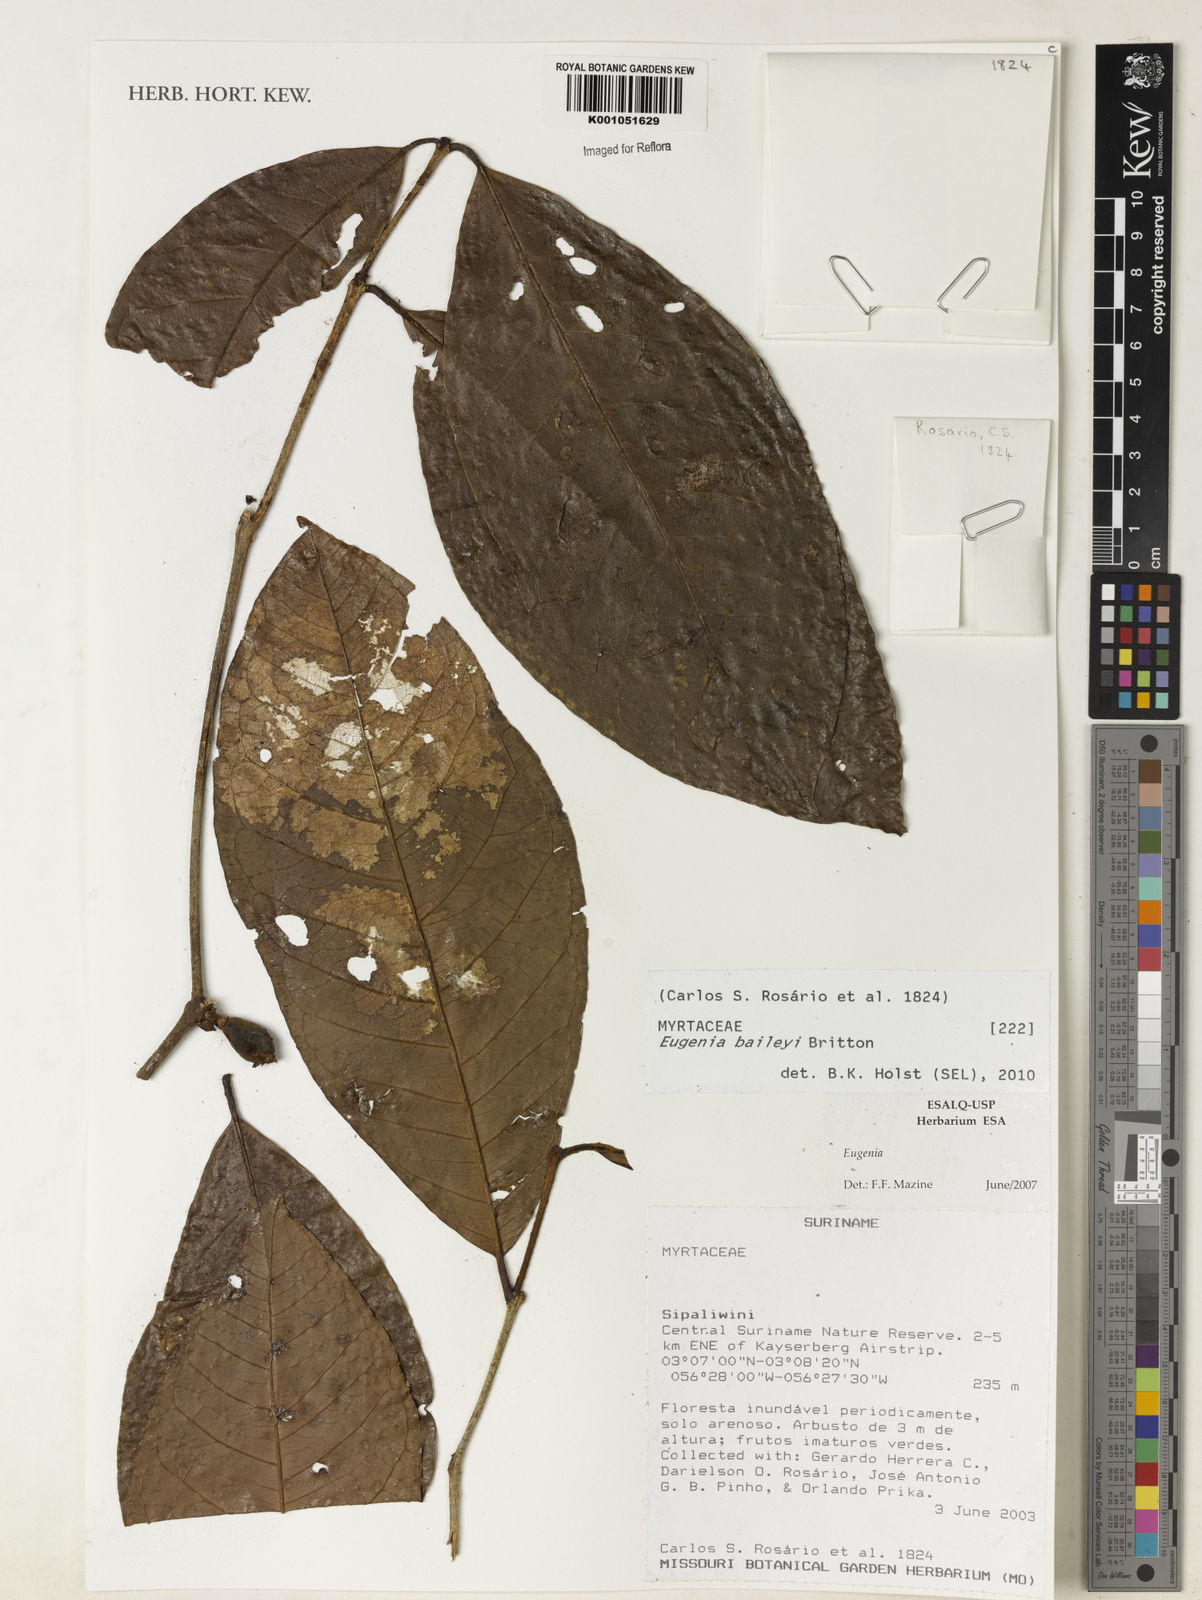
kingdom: Plantae
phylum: Tracheophyta
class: Magnoliopsida
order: Myrtales
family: Myrtaceae
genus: Eugenia
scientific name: Eugenia baileyi
